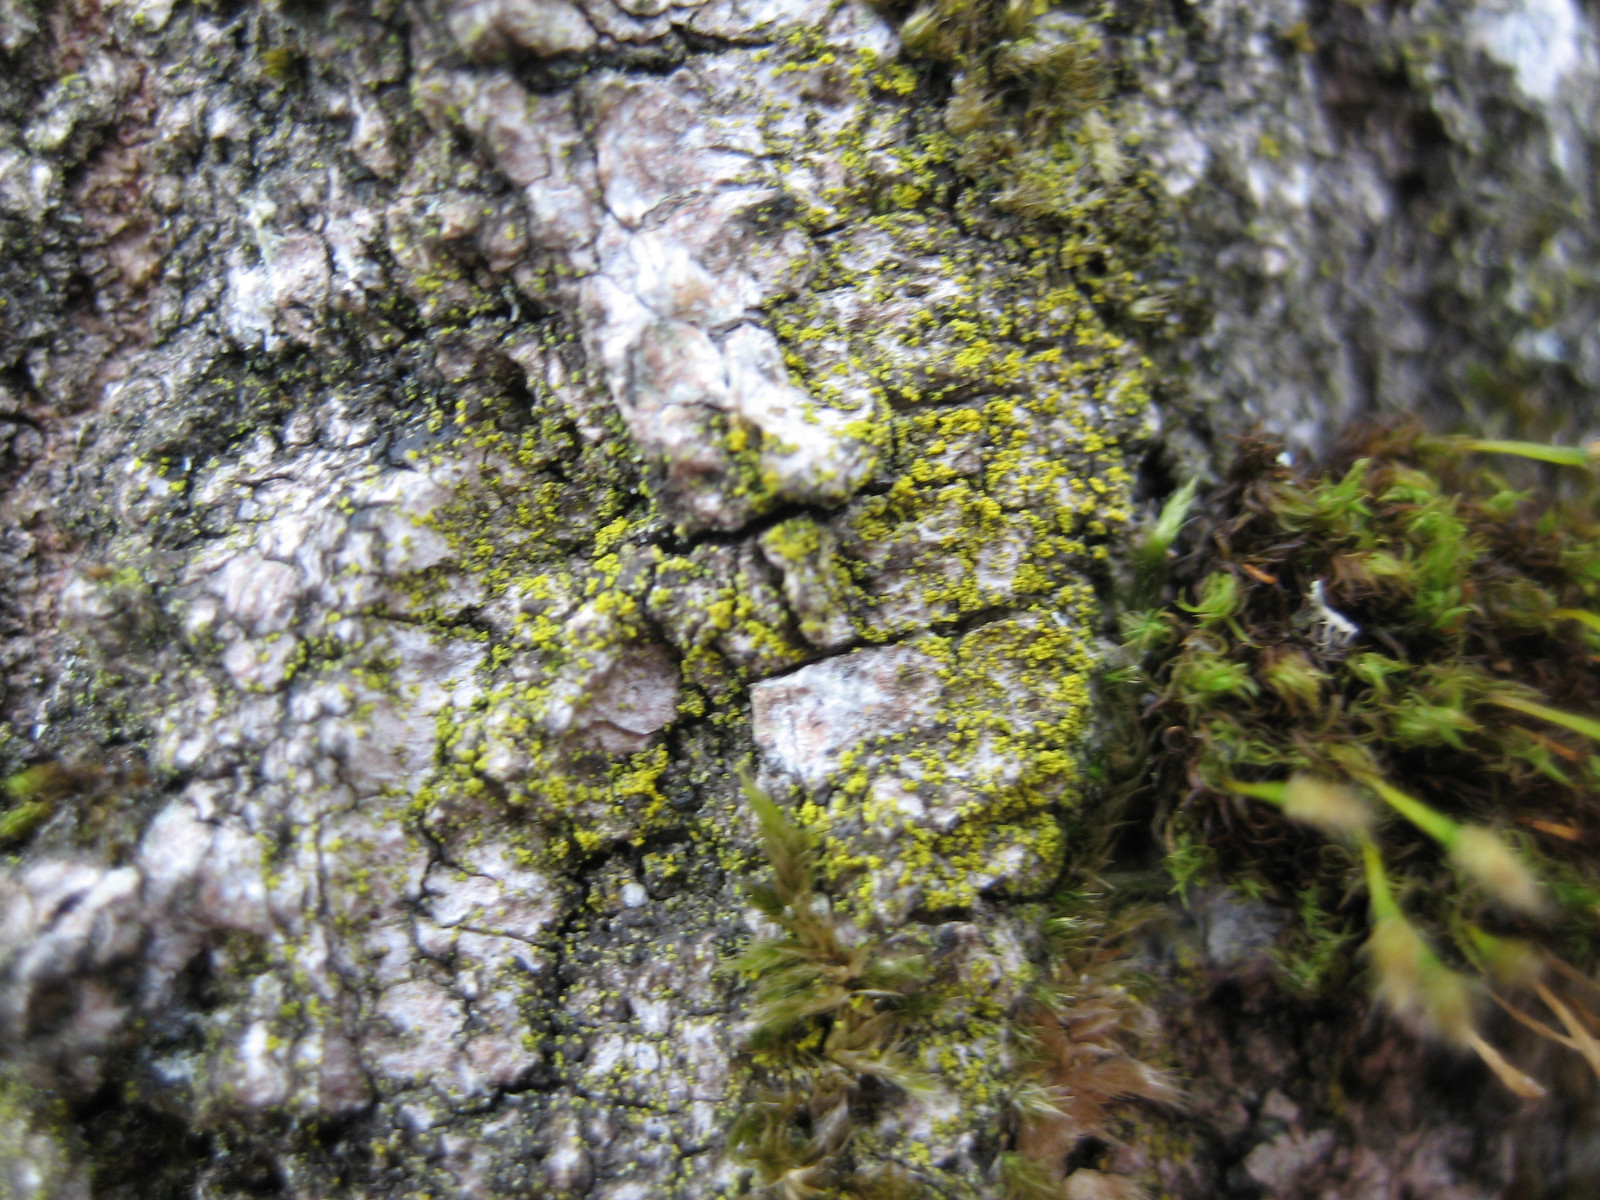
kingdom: Fungi
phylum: Ascomycota
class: Candelariomycetes
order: Candelariales
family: Candelariaceae
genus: Candelariella
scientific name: Candelariella vitellina
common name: almindelig æggeblommelav
